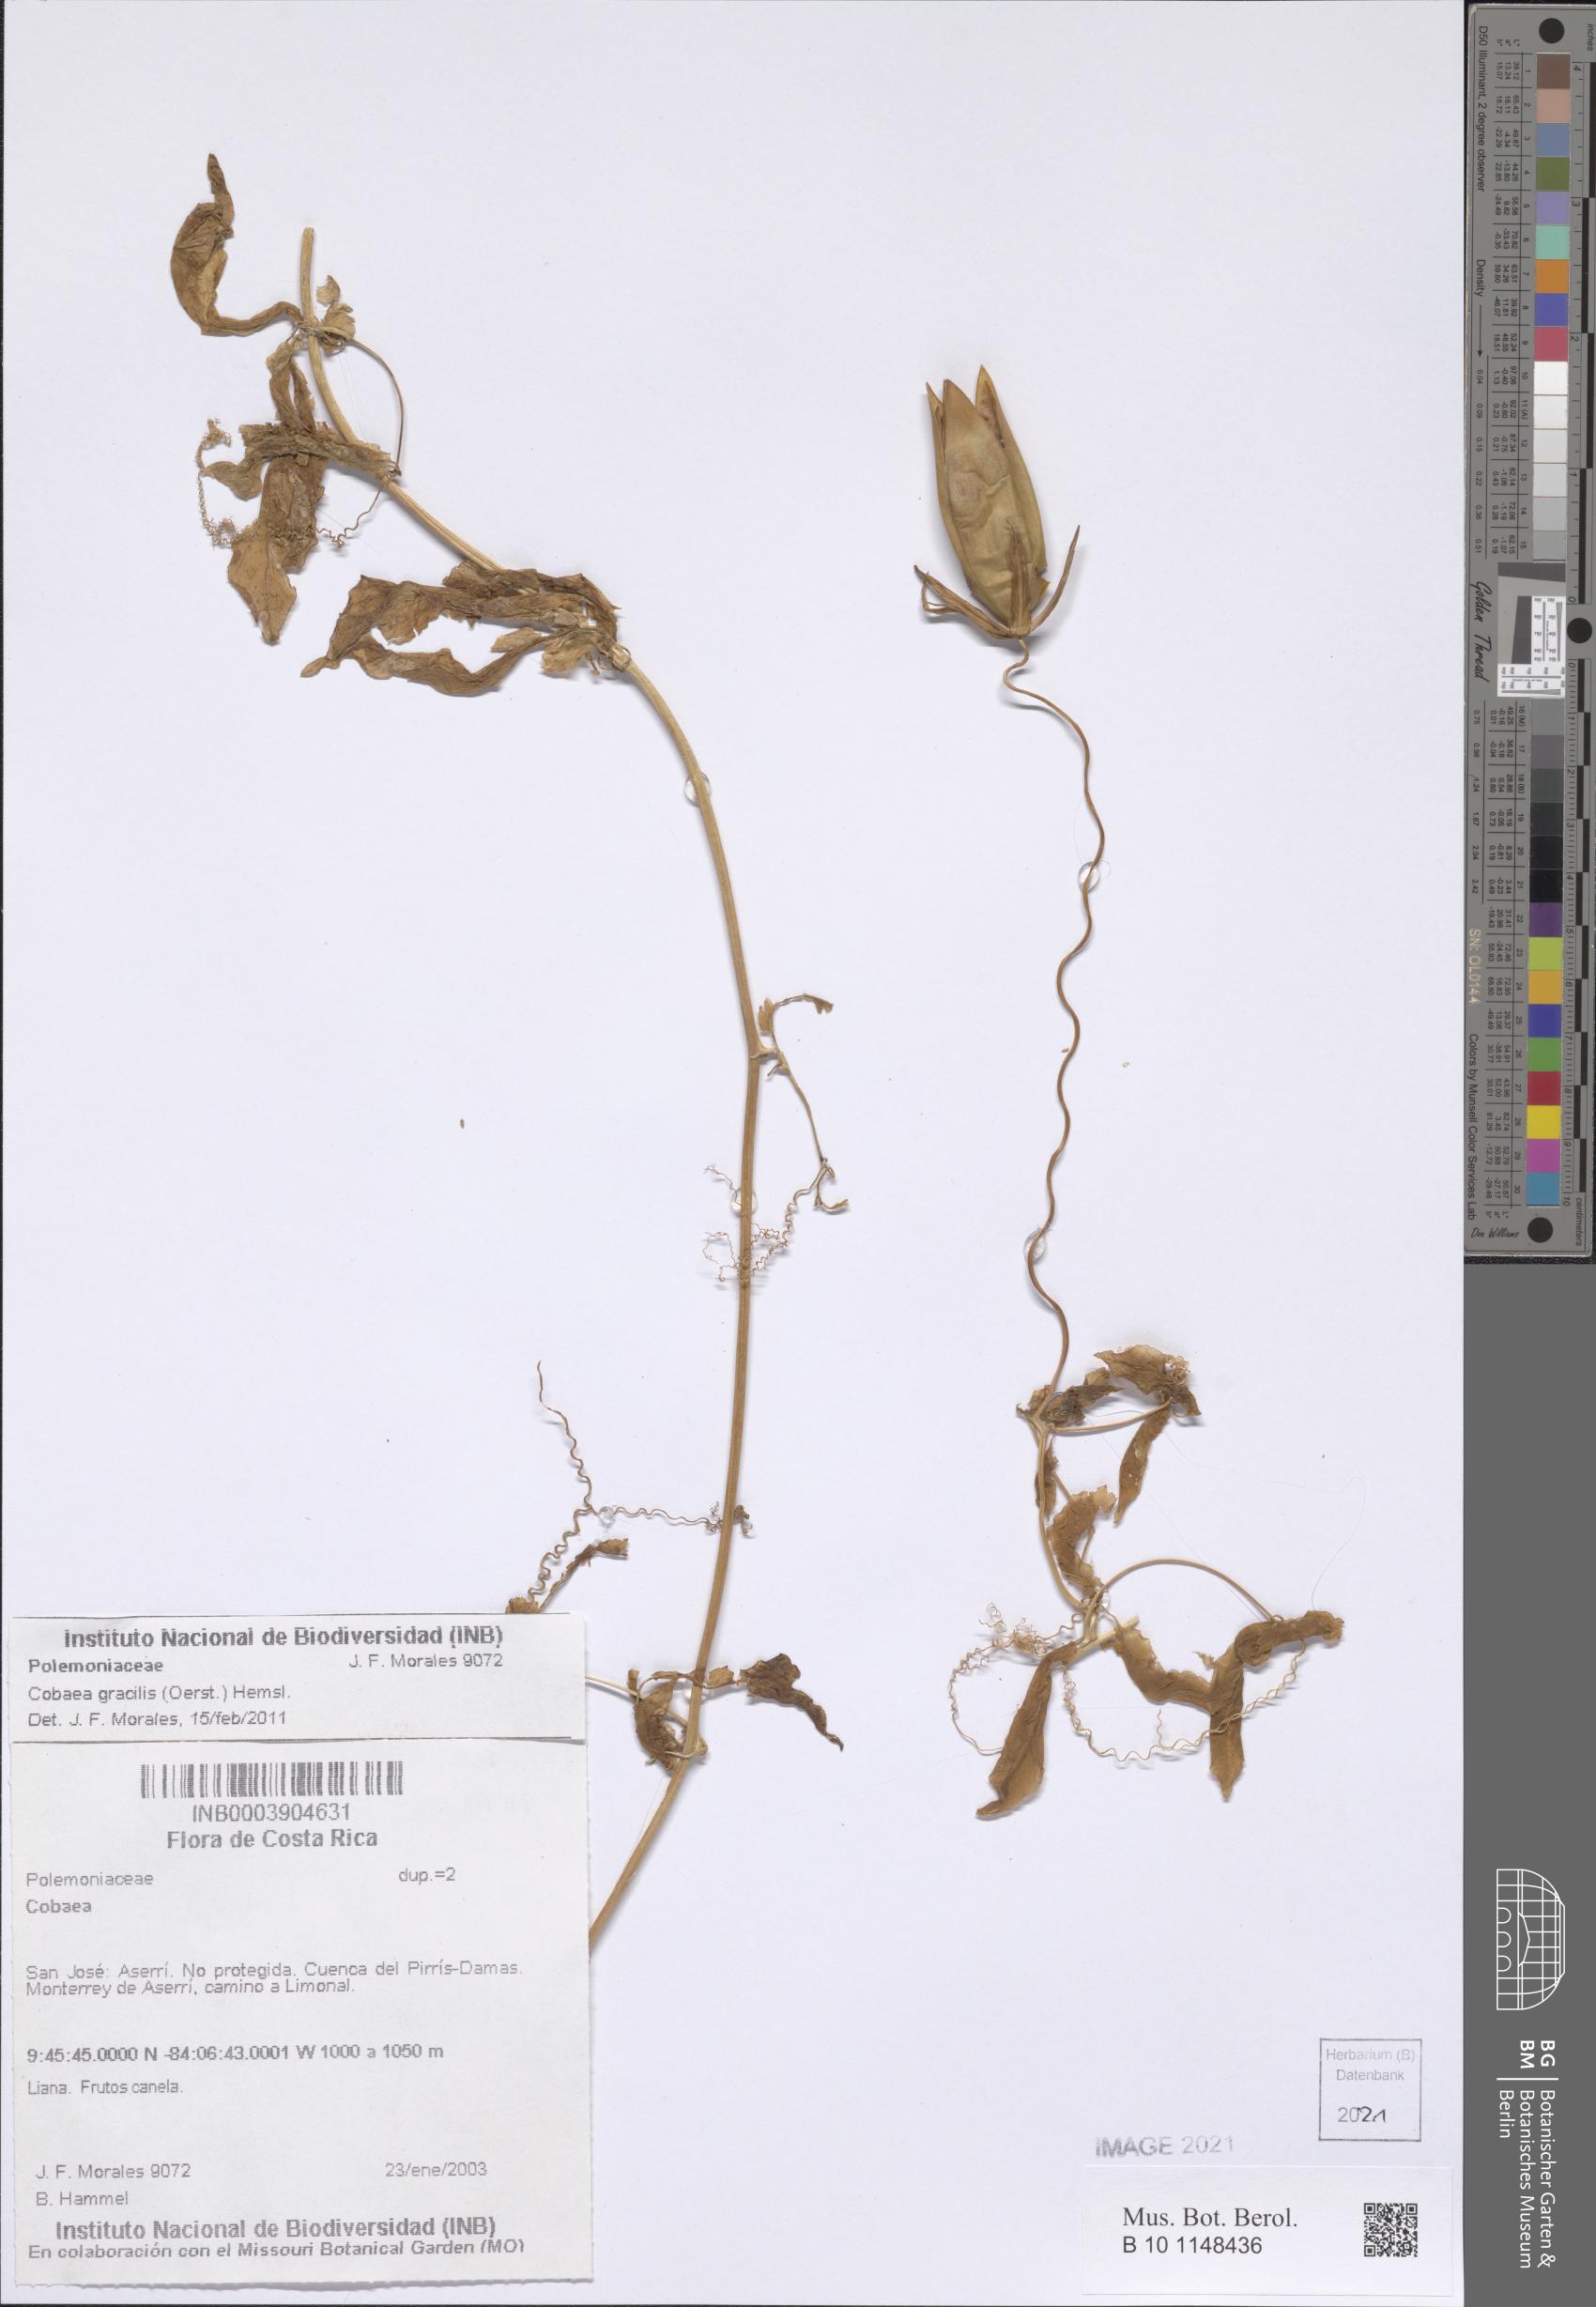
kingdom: Plantae
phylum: Tracheophyta
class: Magnoliopsida
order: Ericales
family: Polemoniaceae
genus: Cobaea
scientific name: Cobaea gracilis
